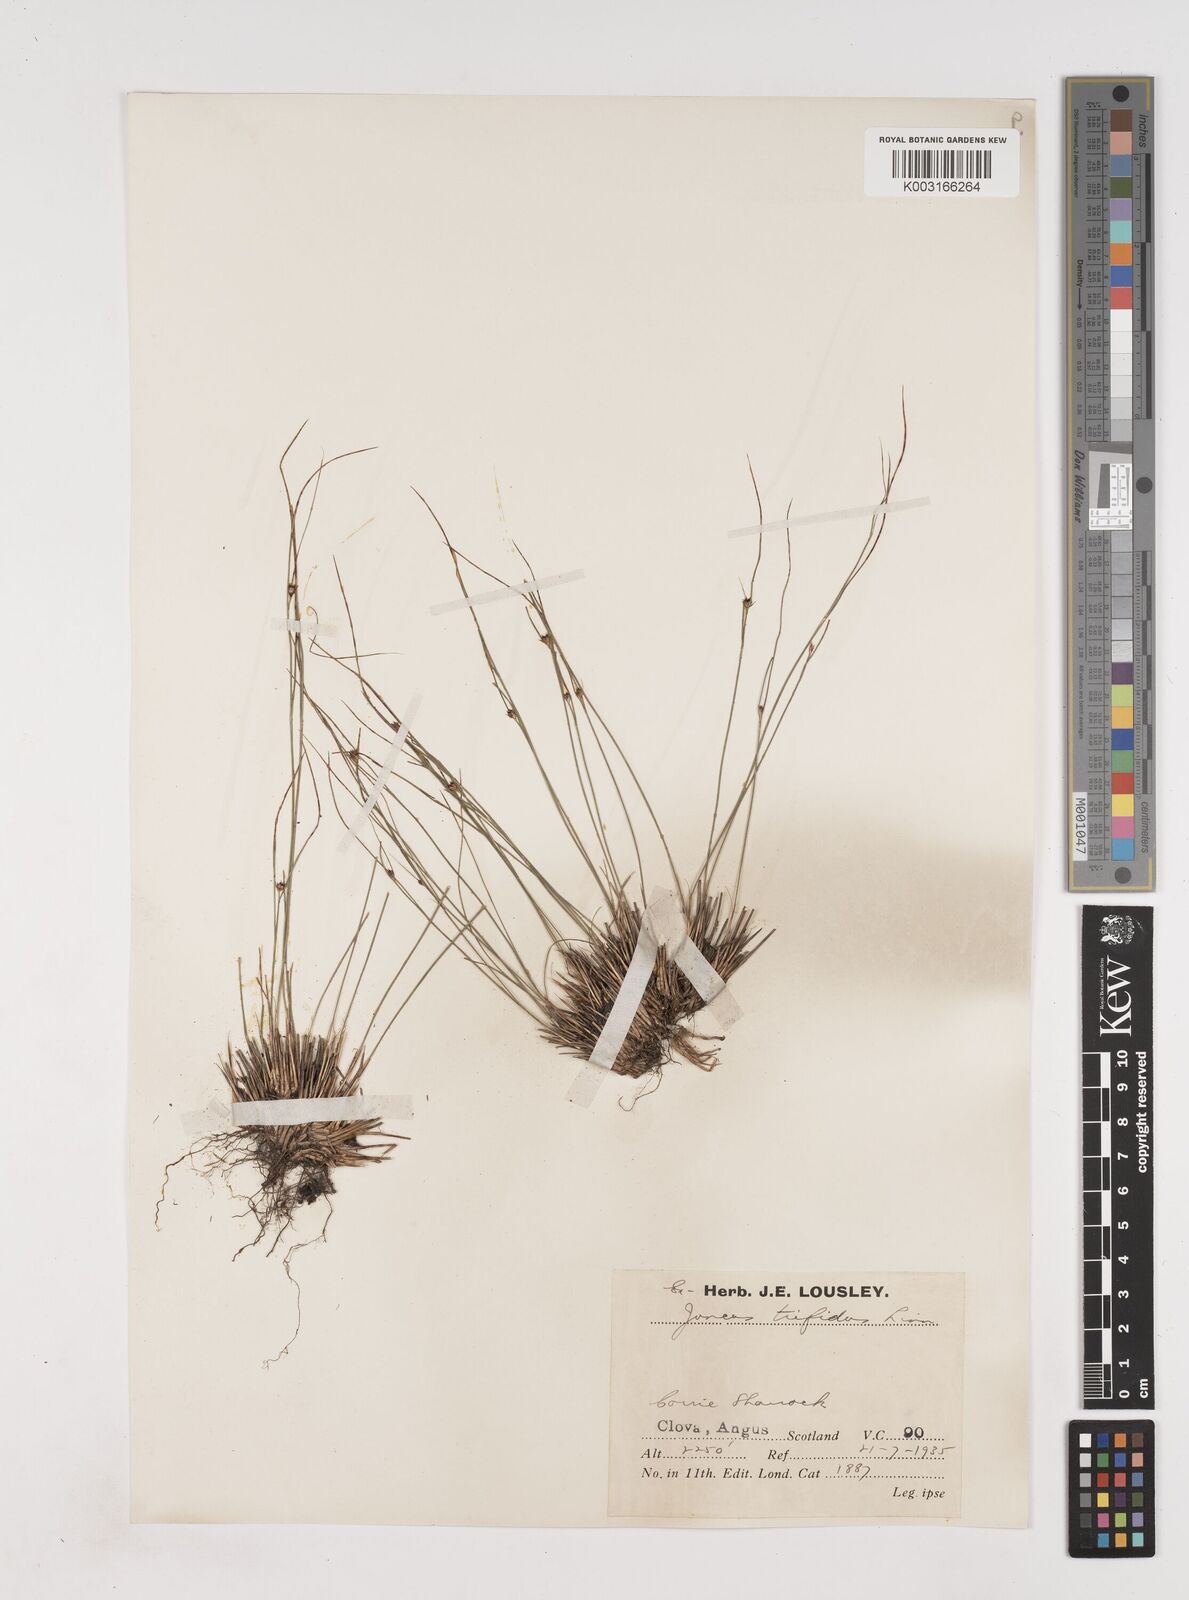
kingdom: Plantae
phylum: Tracheophyta
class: Liliopsida
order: Poales
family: Juncaceae
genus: Oreojuncus
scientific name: Oreojuncus trifidus
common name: Highland rush
